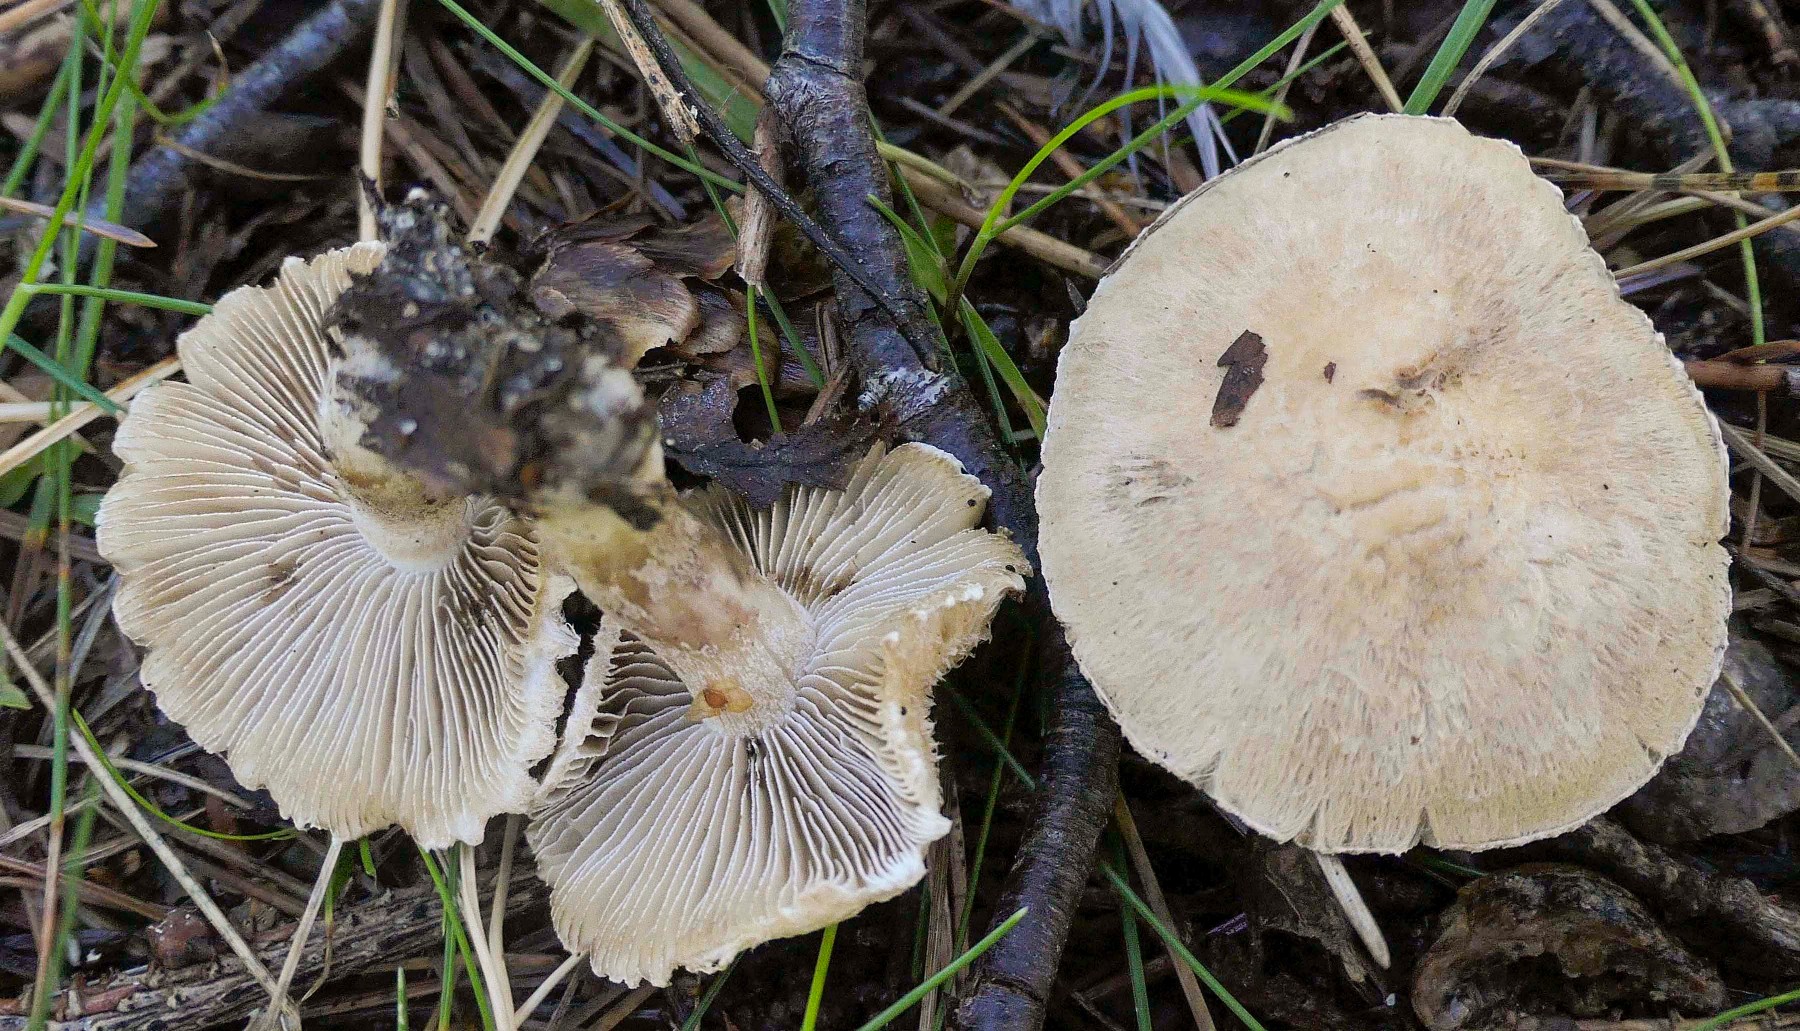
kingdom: Fungi
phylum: Basidiomycota
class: Agaricomycetes
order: Agaricales
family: Inocybaceae
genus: Inocybe
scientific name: Inocybe melanopoda
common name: sortfodet trævlhat
